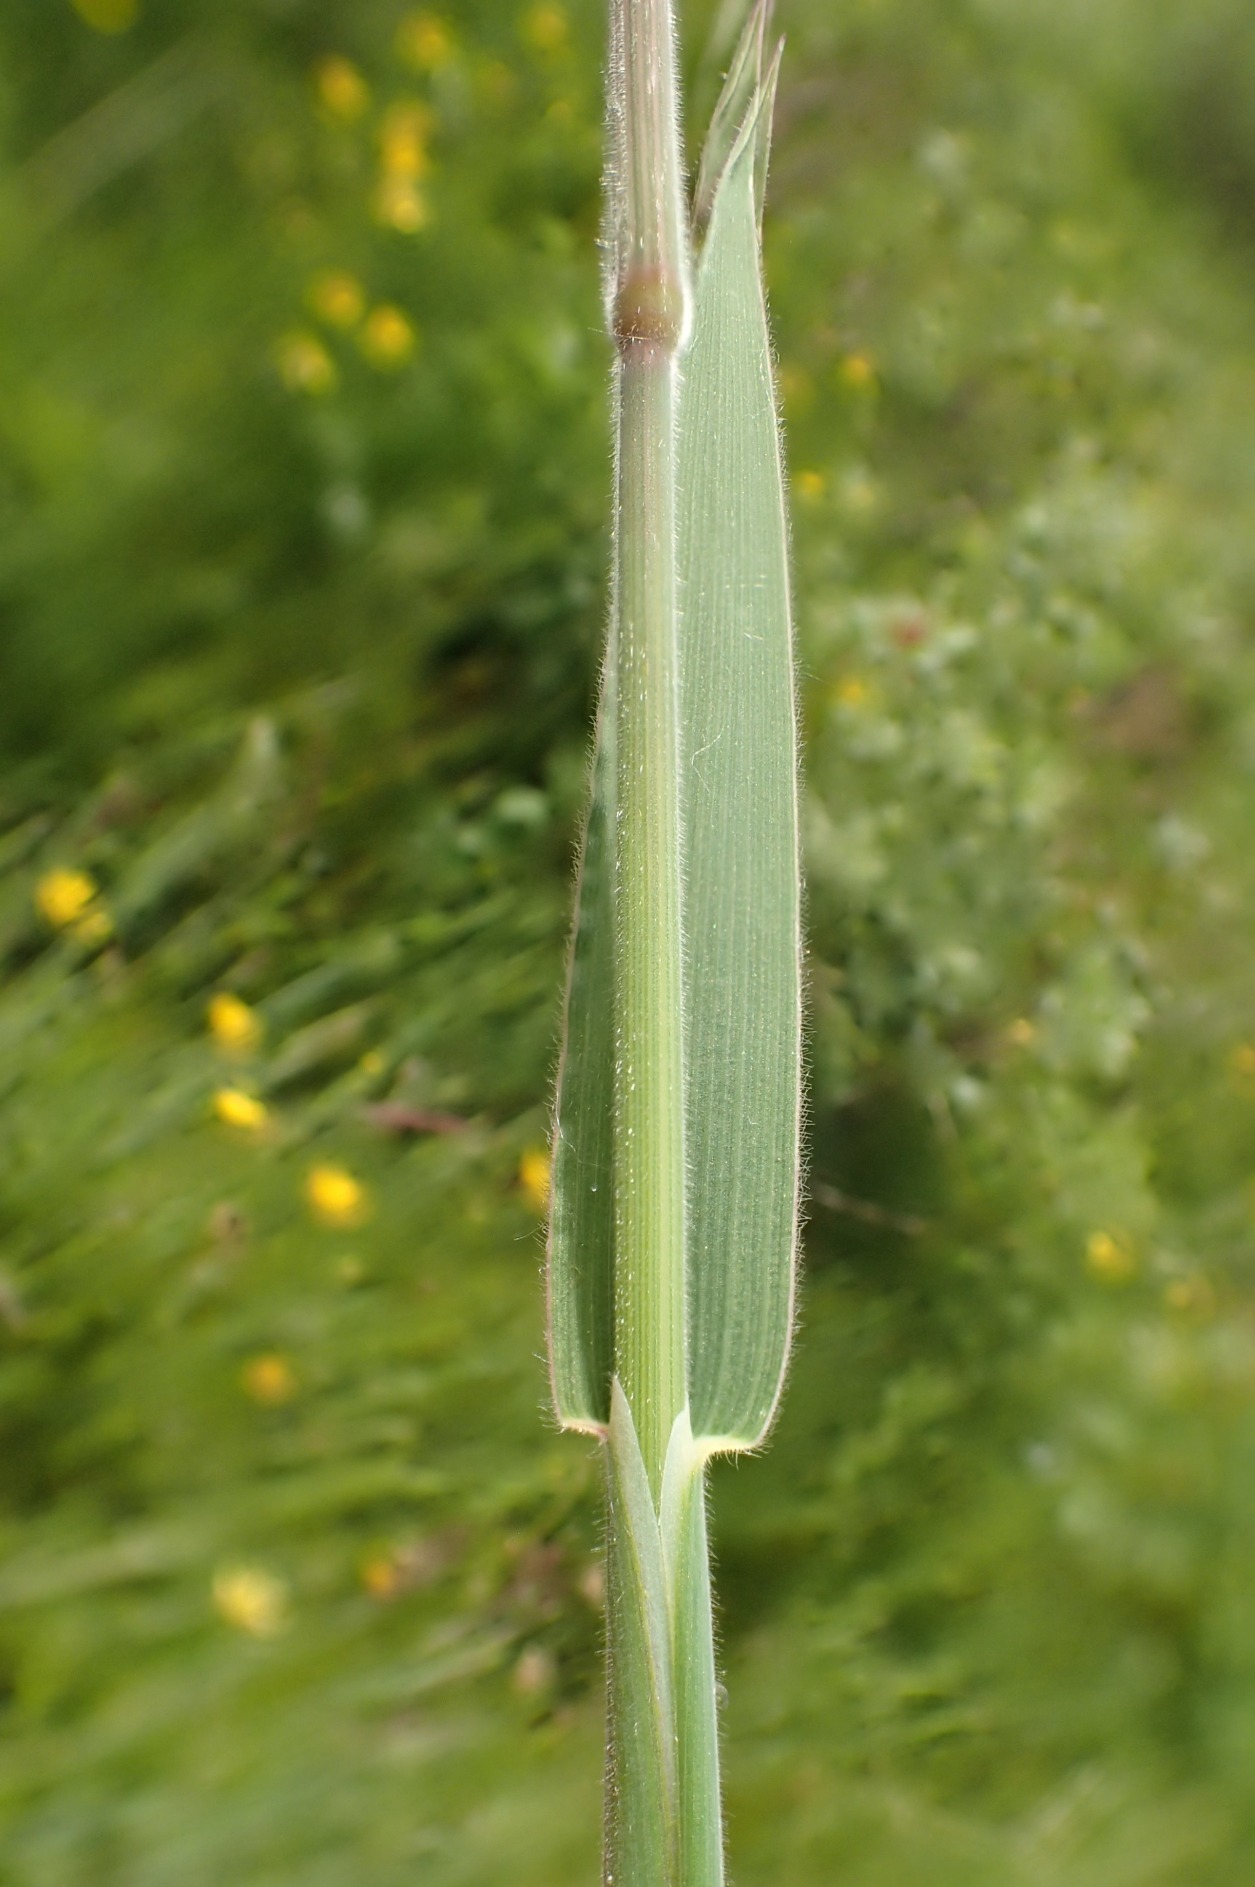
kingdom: Plantae
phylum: Tracheophyta
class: Liliopsida
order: Poales
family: Poaceae
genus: Holcus
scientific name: Holcus lanatus
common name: Fløjlsgræs
